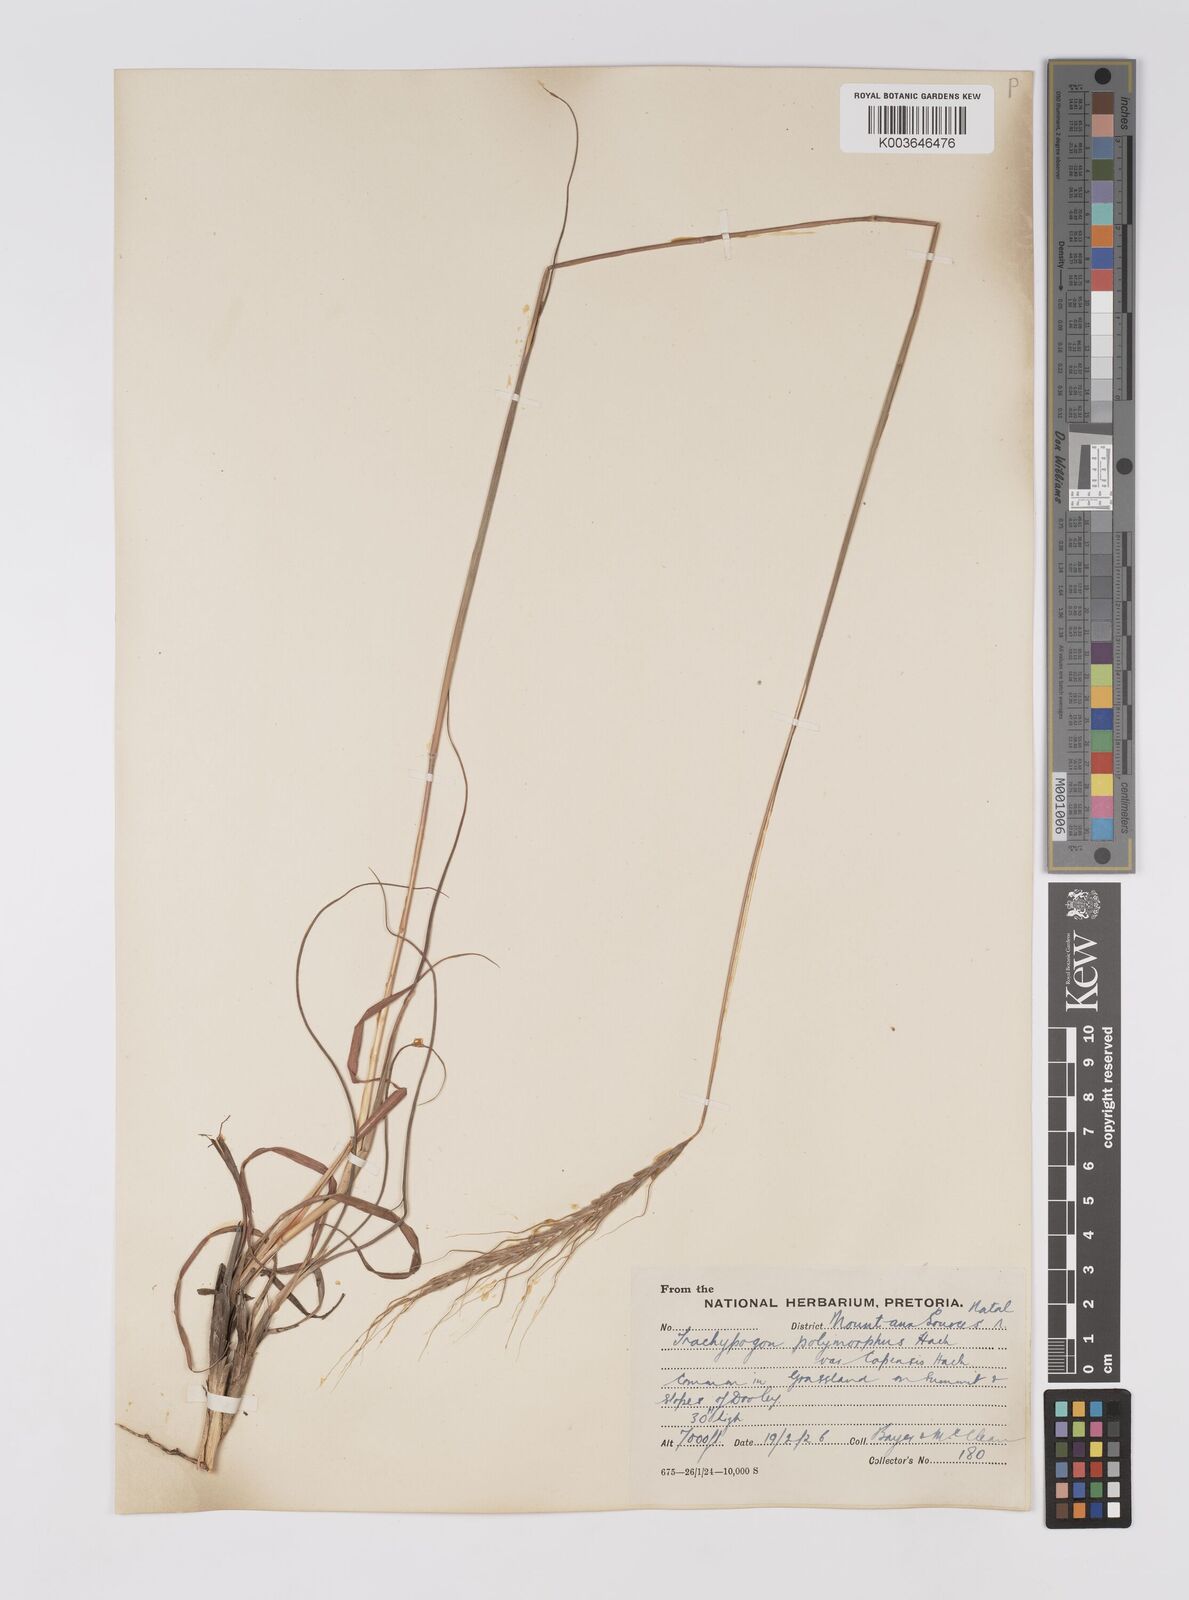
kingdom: Plantae
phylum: Tracheophyta
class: Liliopsida
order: Poales
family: Poaceae
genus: Trachypogon
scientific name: Trachypogon spicatus
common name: Crinkle-awn
